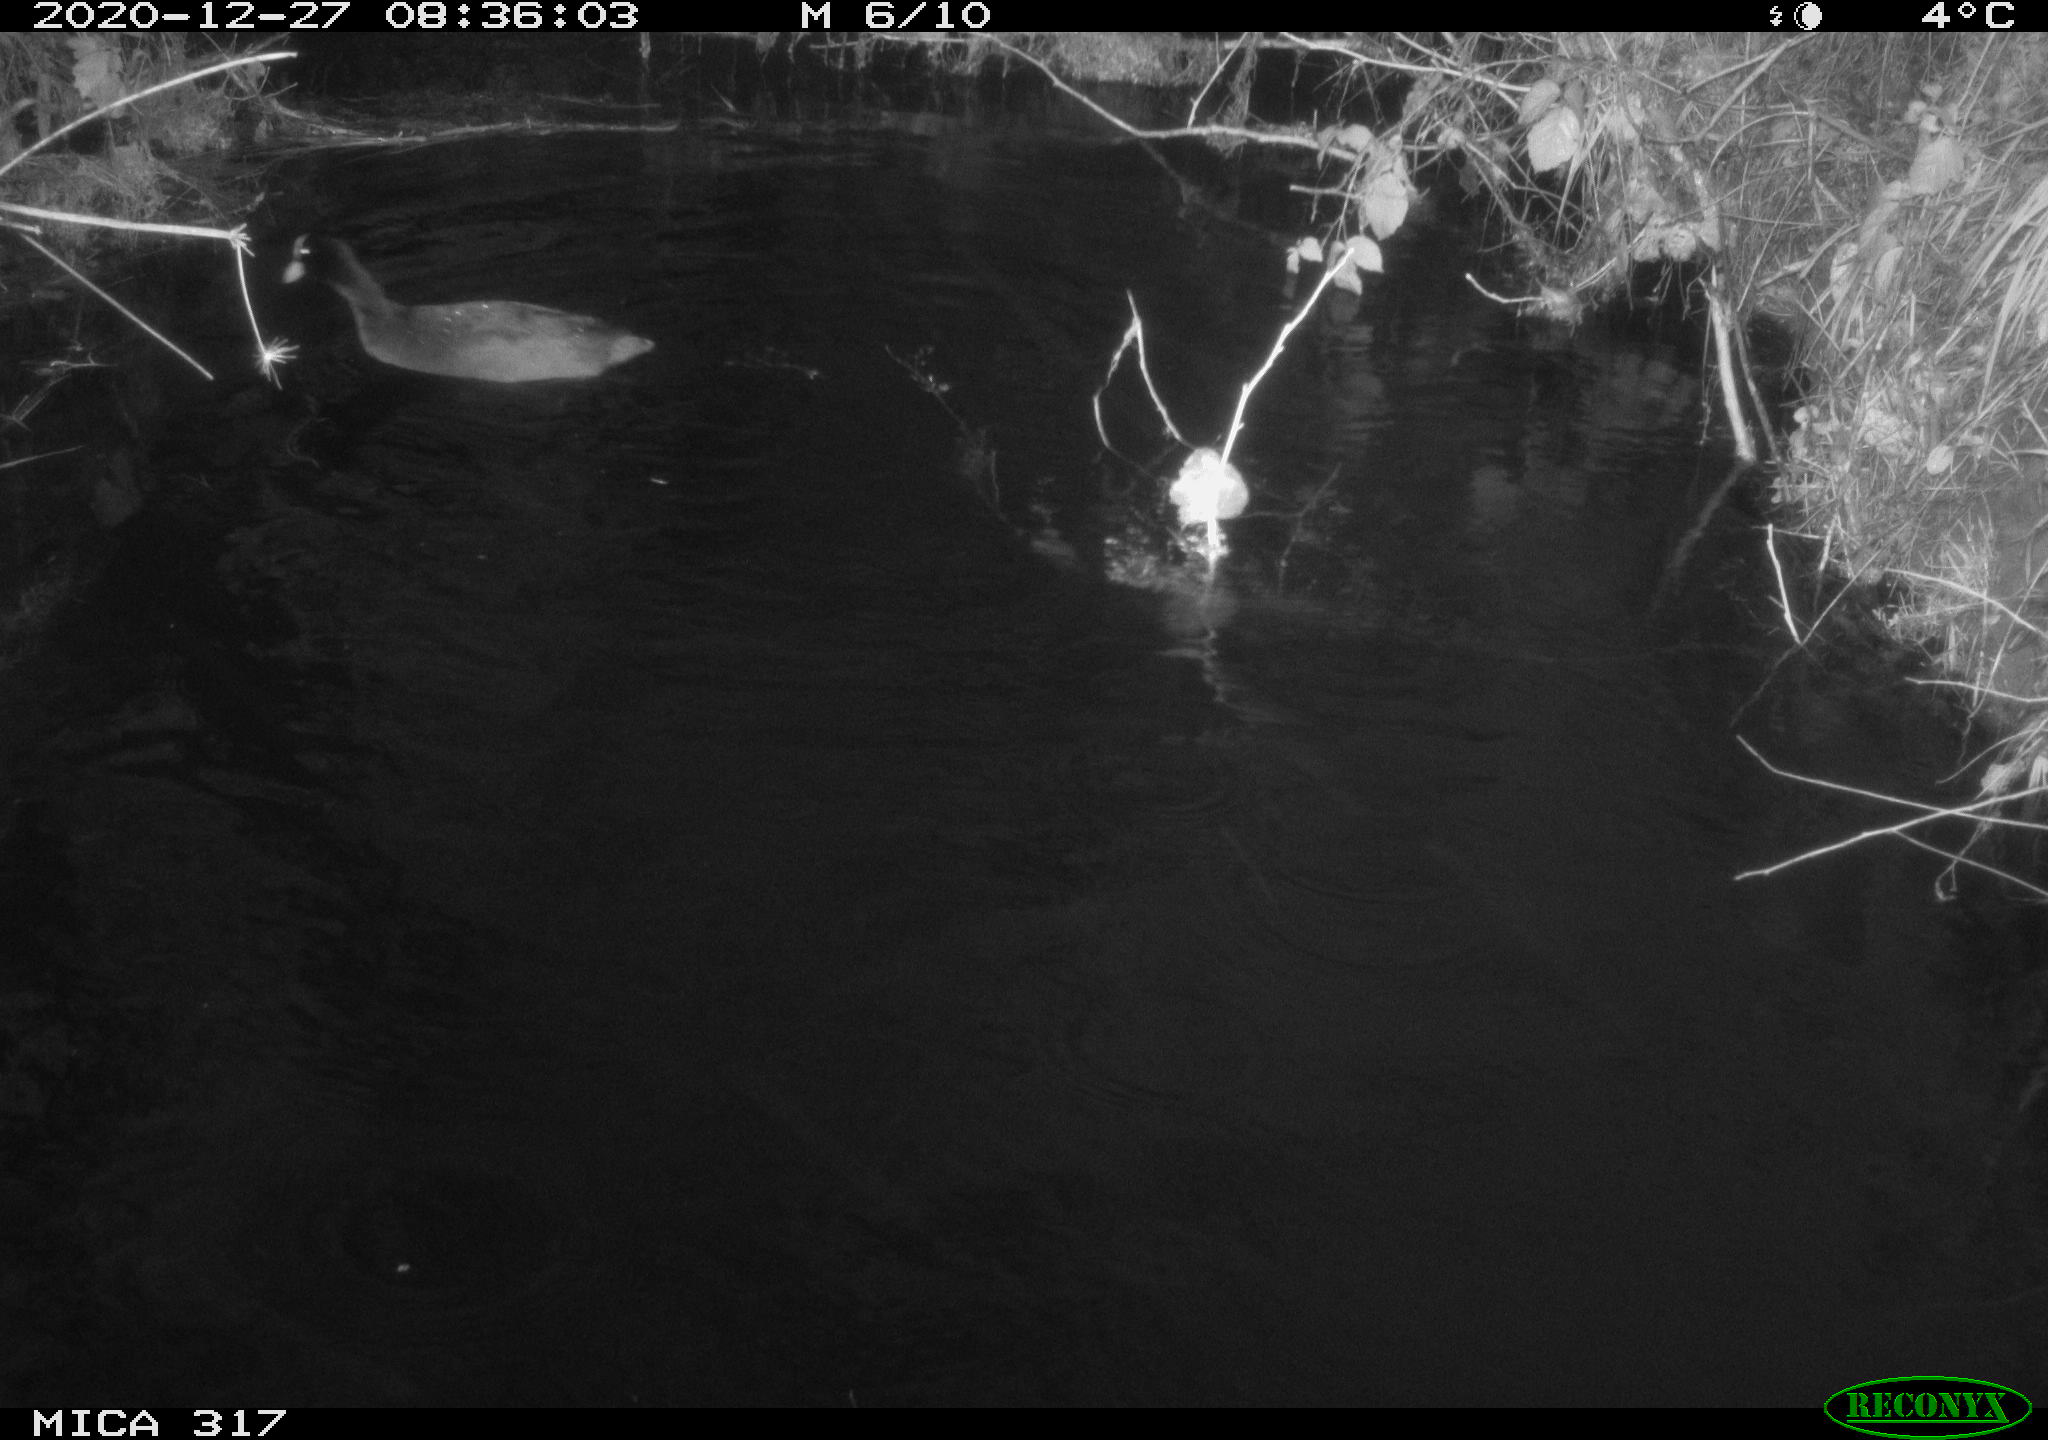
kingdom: Animalia
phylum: Chordata
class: Aves
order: Gruiformes
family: Rallidae
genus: Fulica
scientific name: Fulica atra
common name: Eurasian coot
